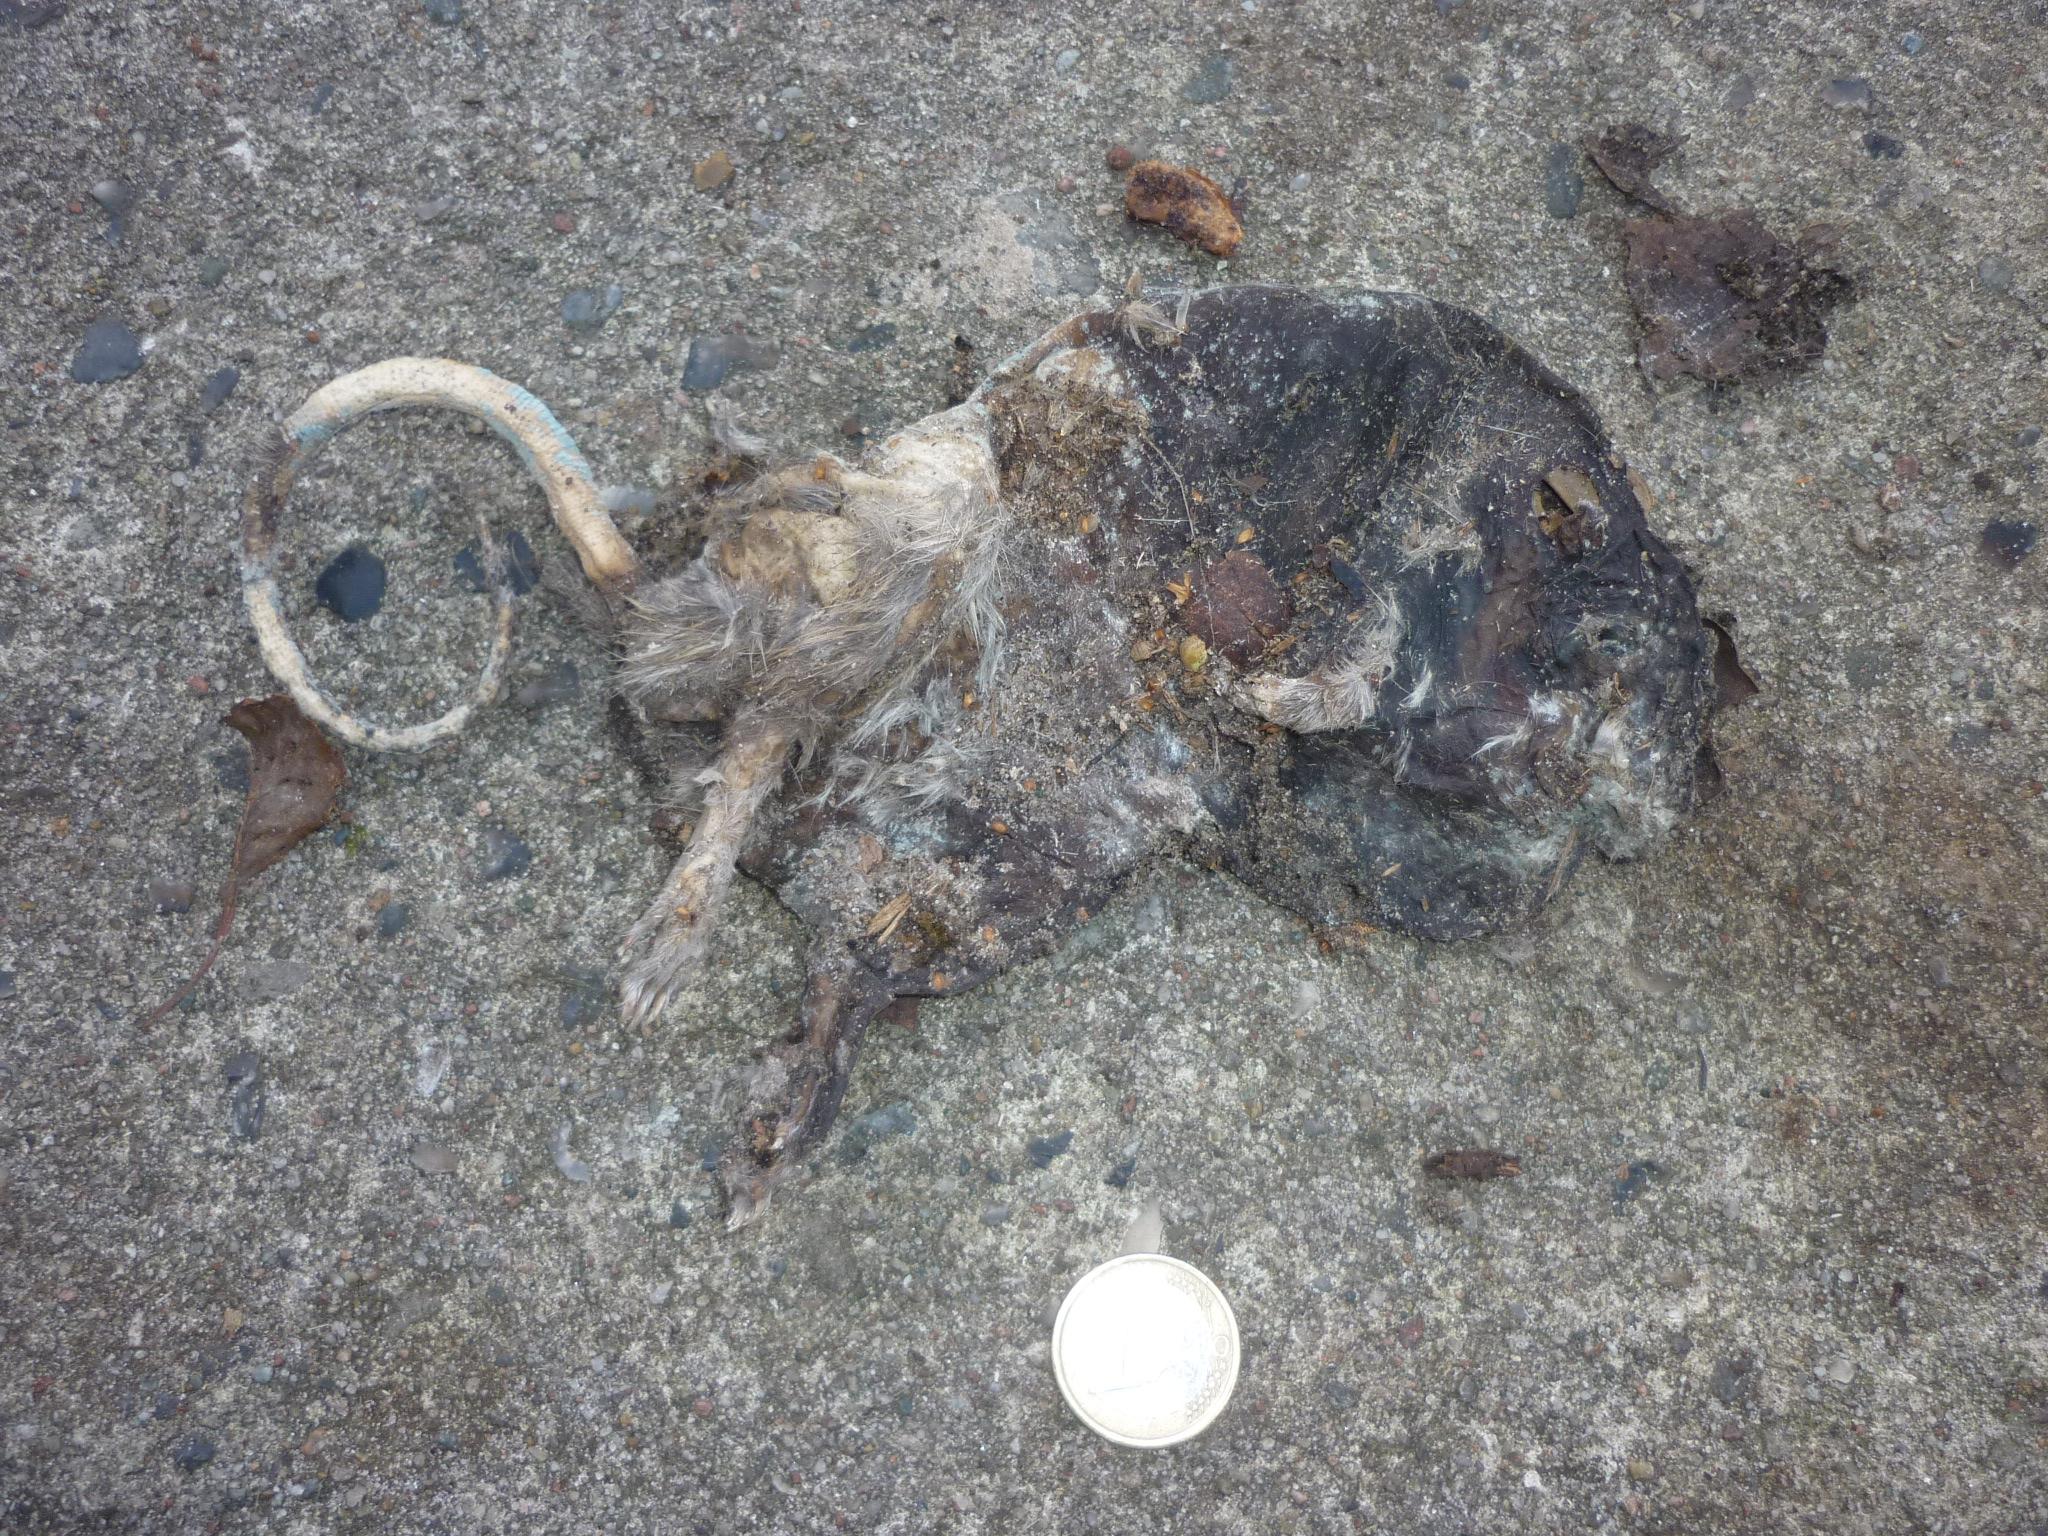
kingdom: Animalia
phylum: Chordata
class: Mammalia
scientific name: Mammalia
